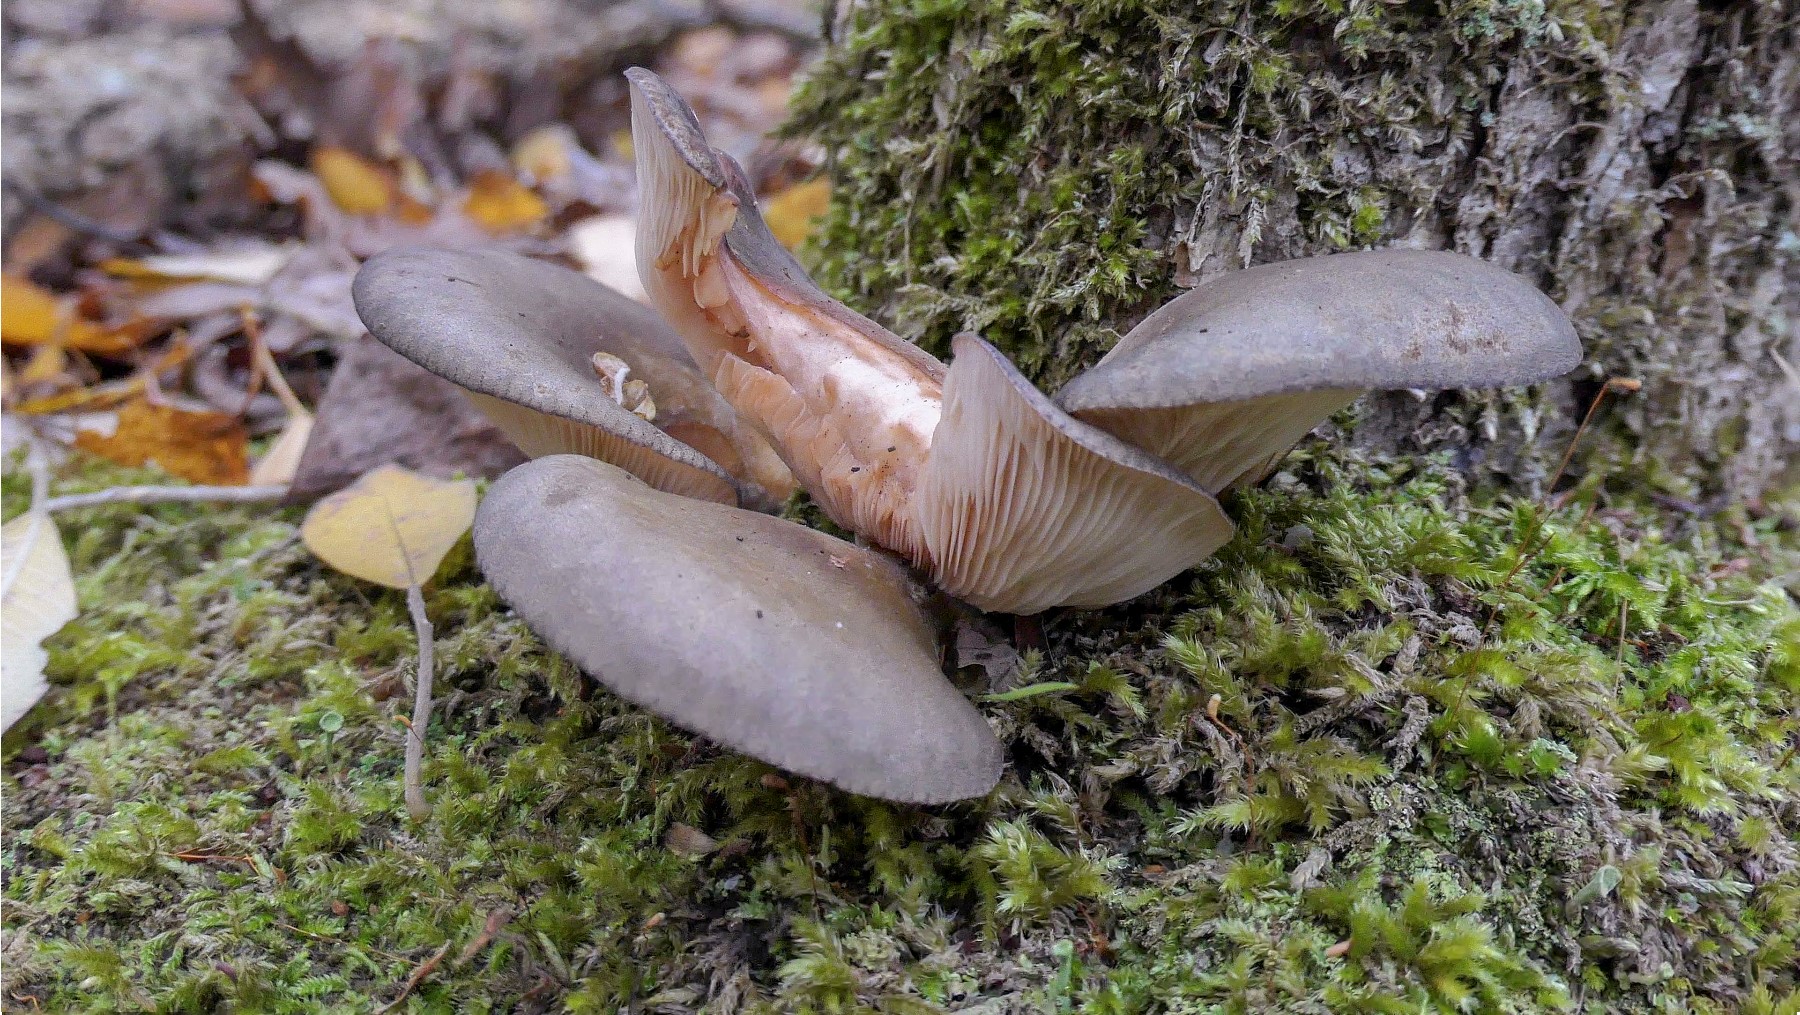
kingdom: Fungi
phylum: Basidiomycota
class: Agaricomycetes
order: Agaricales
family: Sarcomyxaceae
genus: Sarcomyxa
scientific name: Sarcomyxa serotina
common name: gummihat
